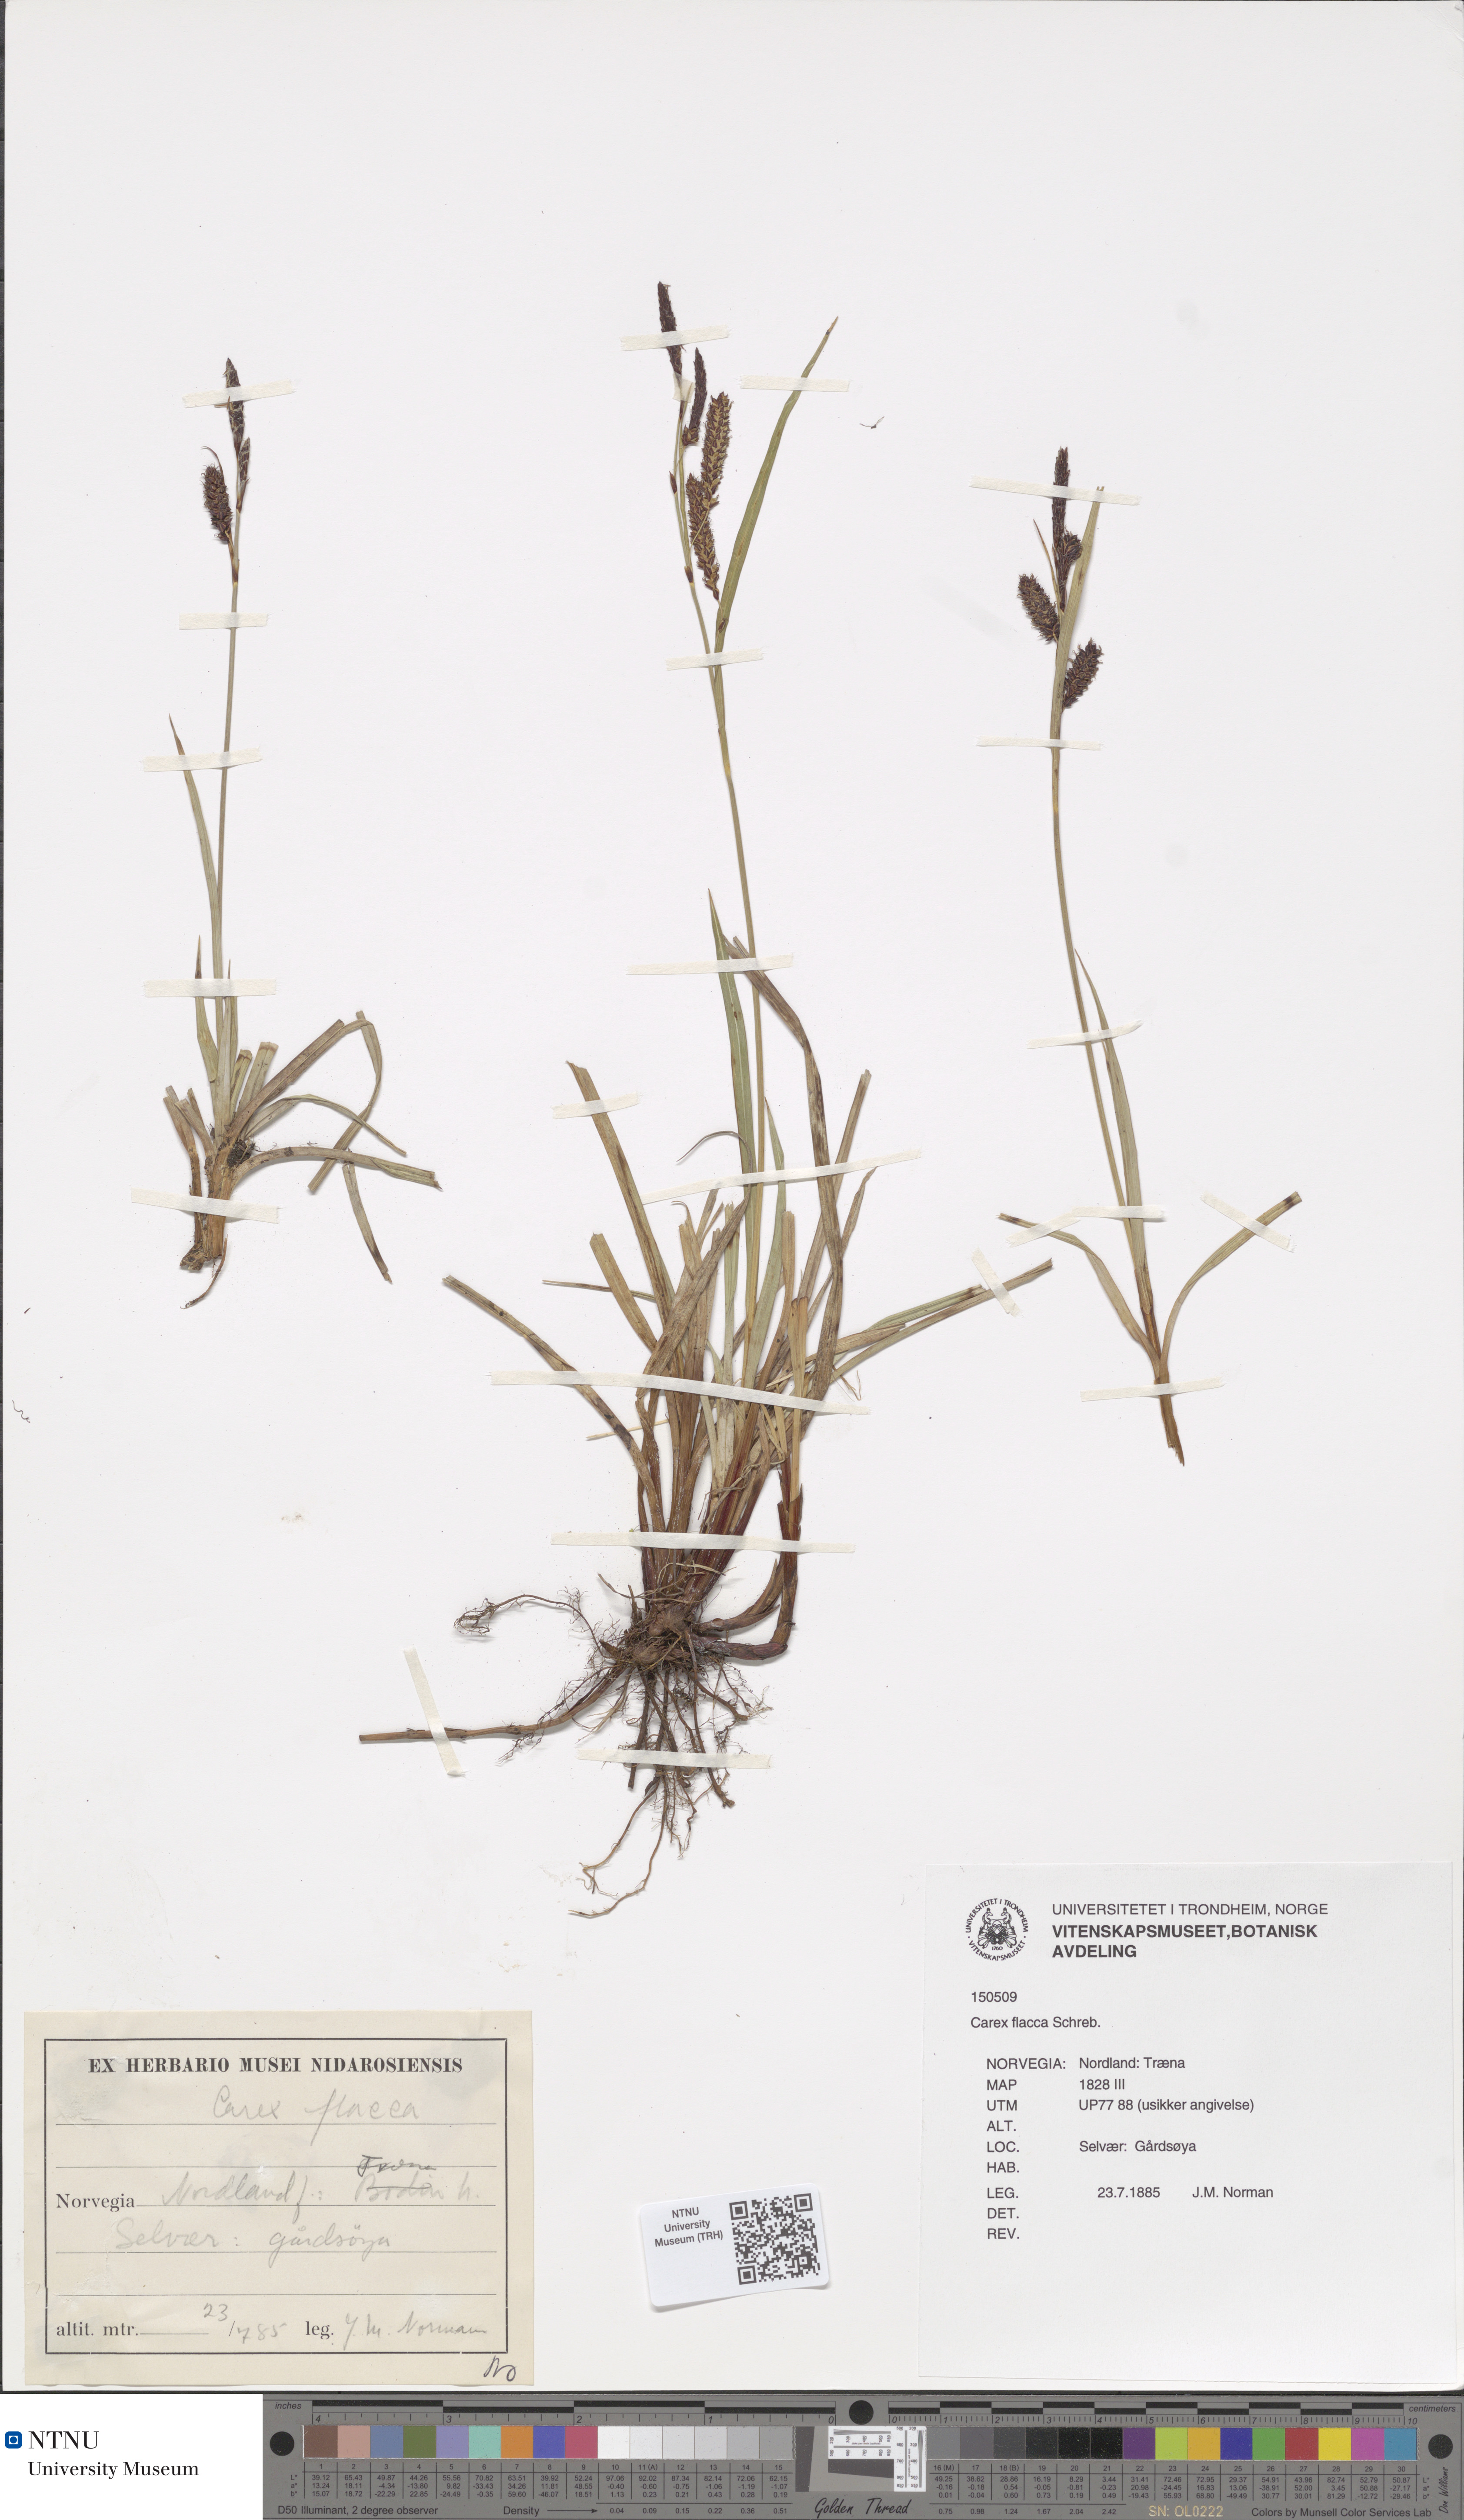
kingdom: Plantae
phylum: Tracheophyta
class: Liliopsida
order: Poales
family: Cyperaceae
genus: Carex
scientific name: Carex flacca
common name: Glaucous sedge
